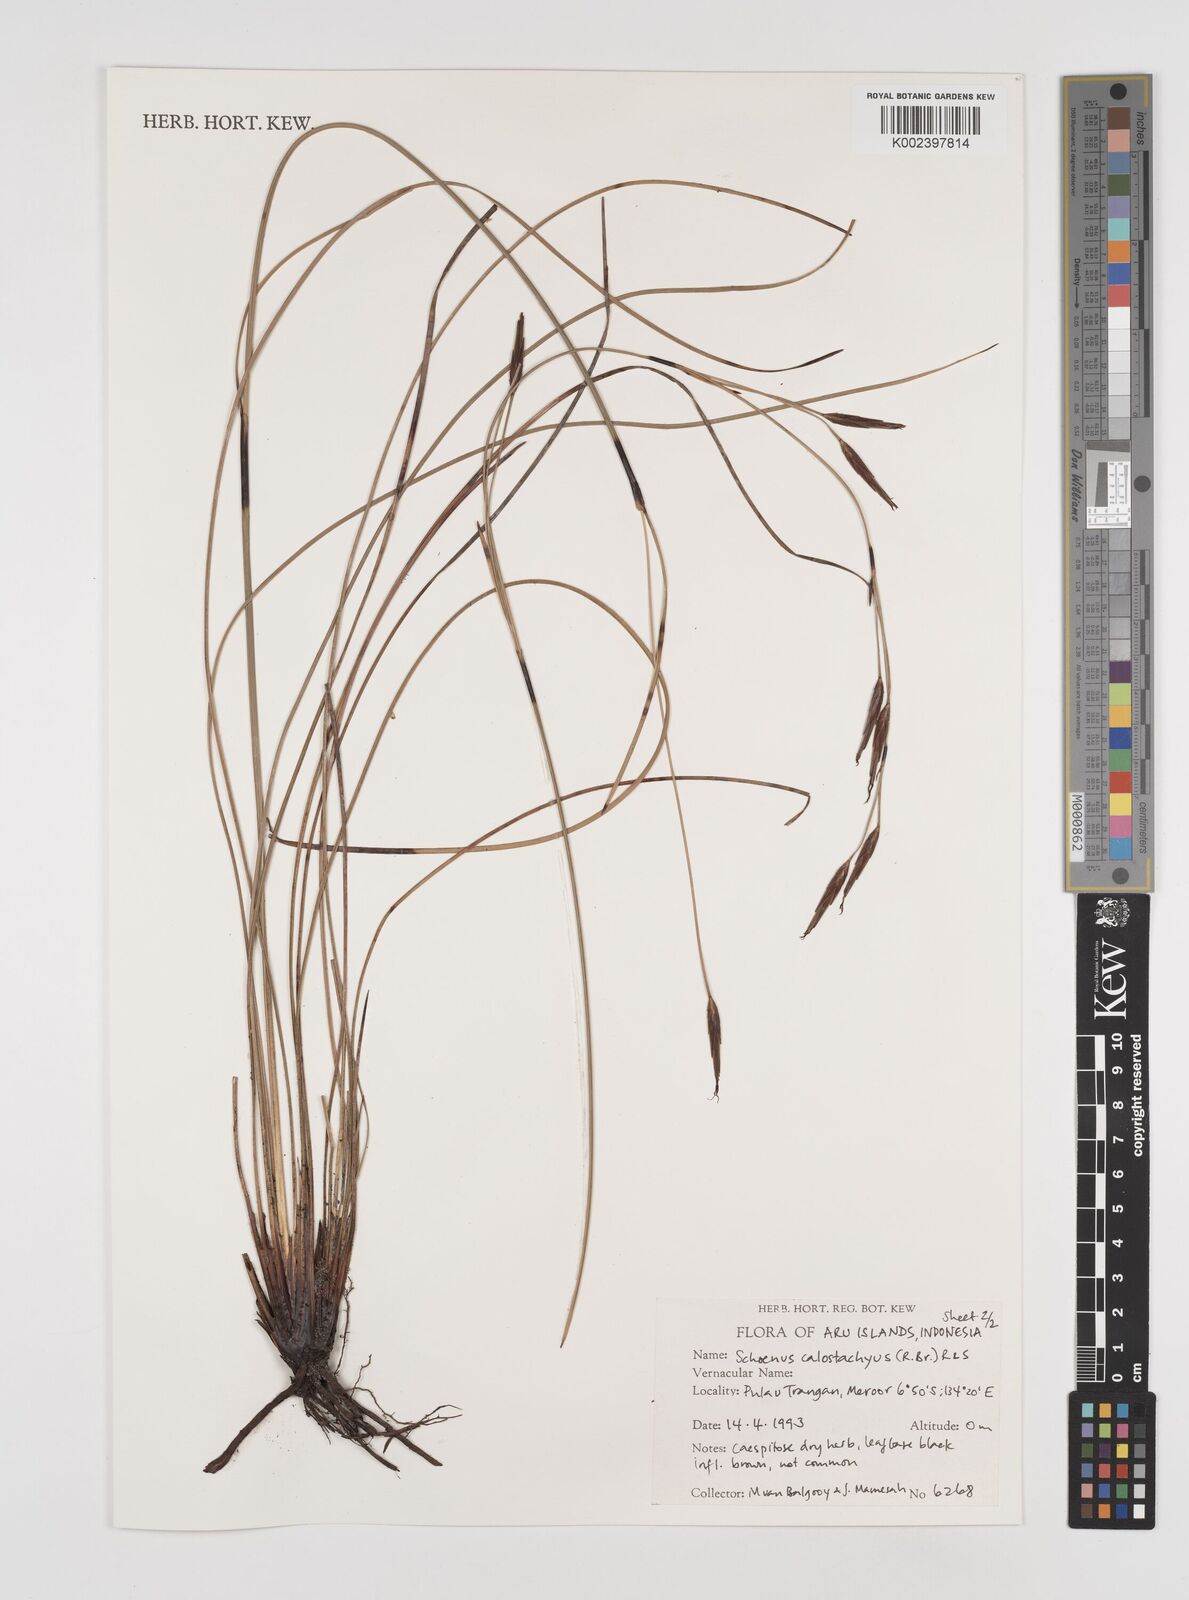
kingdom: Plantae
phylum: Tracheophyta
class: Liliopsida
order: Poales
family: Cyperaceae
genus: Schoenus
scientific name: Schoenus calostachyus
